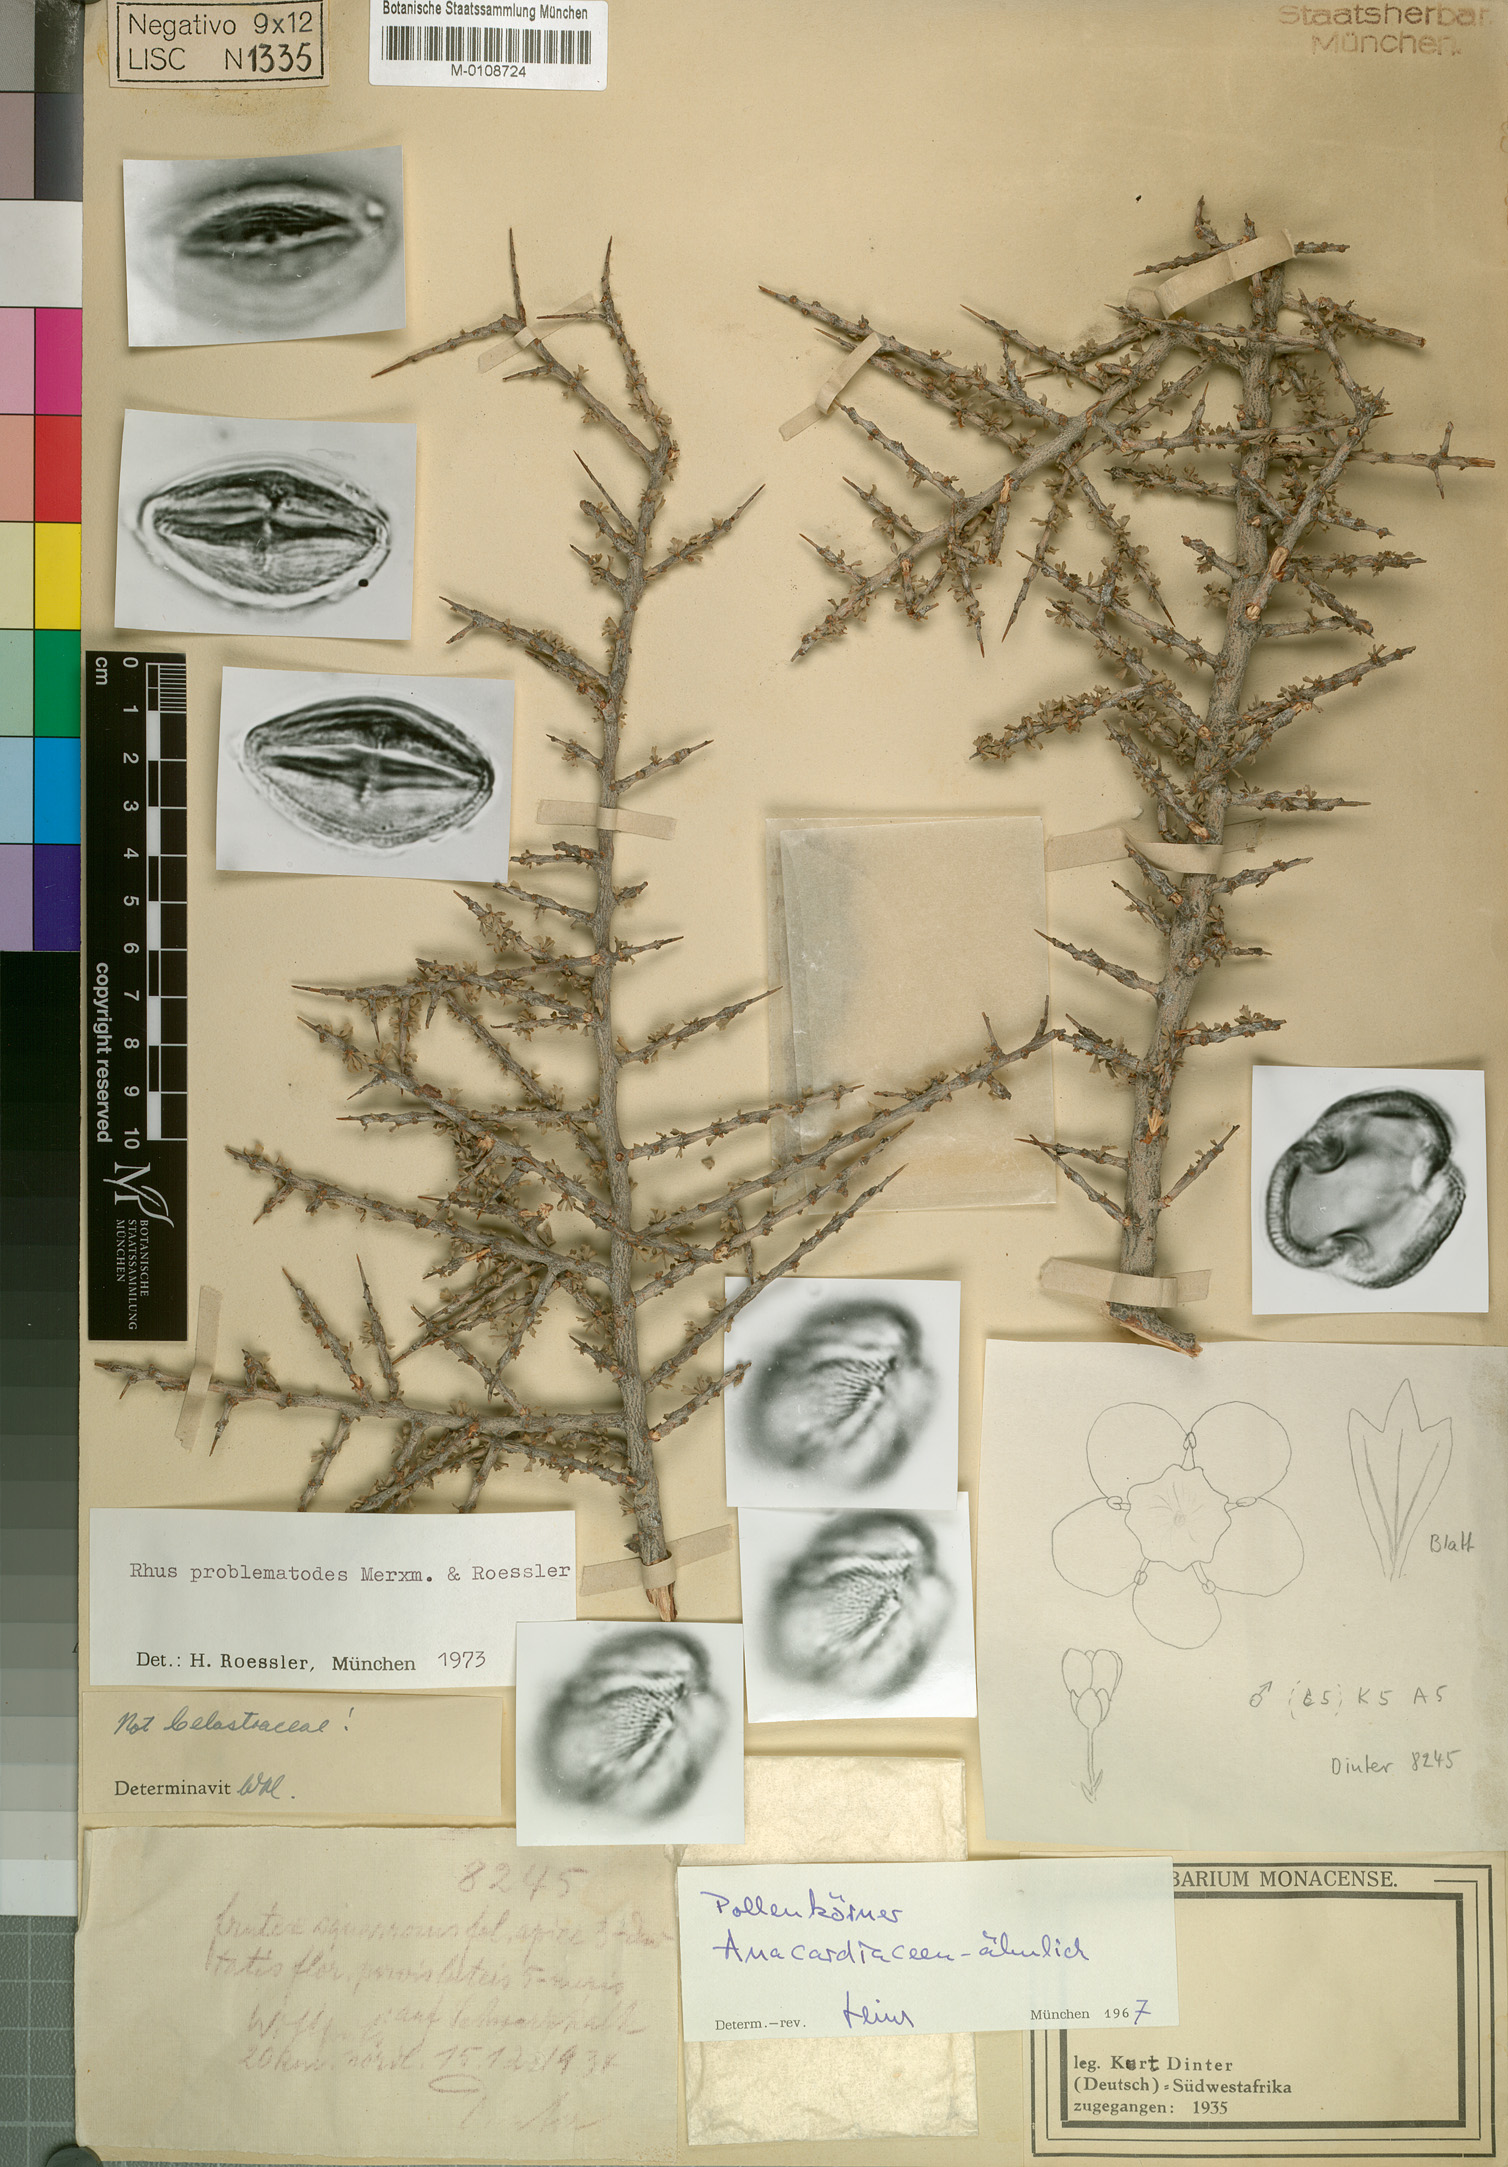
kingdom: Plantae
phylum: Tracheophyta
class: Magnoliopsida
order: Sapindales
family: Anacardiaceae
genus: Searsia
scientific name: Searsia problematodes
